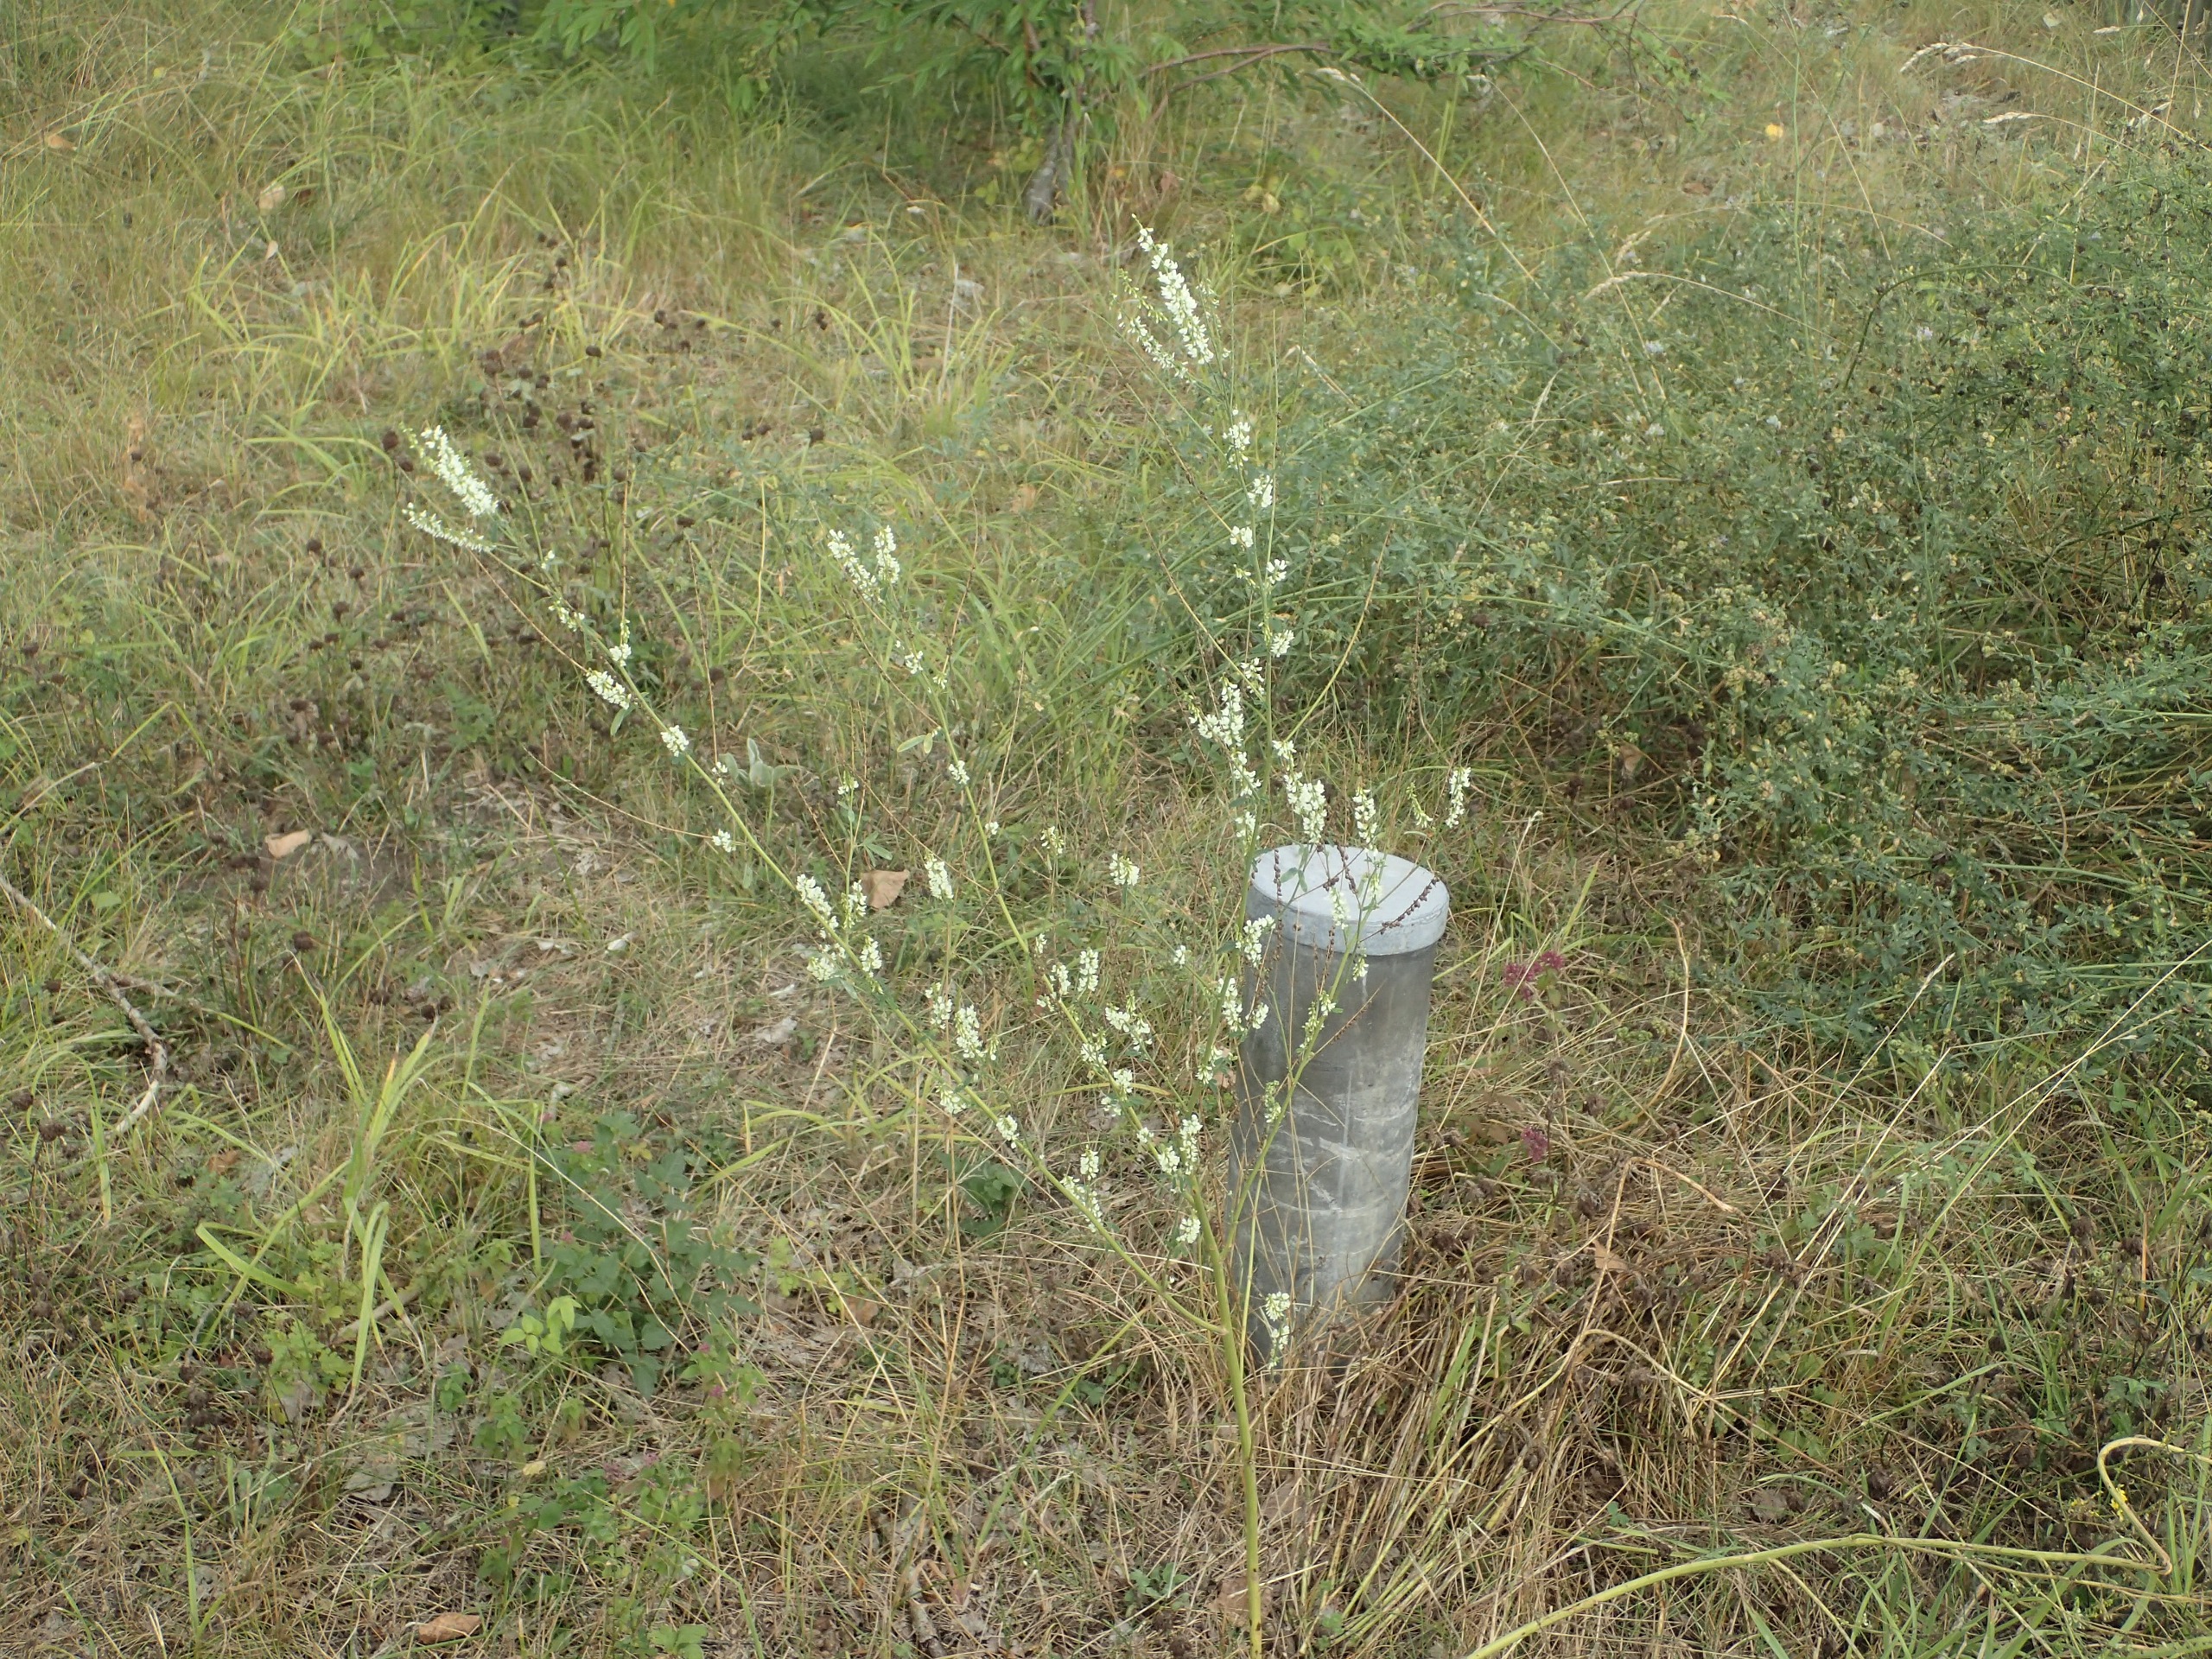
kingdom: Plantae
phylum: Tracheophyta
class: Magnoliopsida
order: Fabales
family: Fabaceae
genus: Melilotus
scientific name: Melilotus albus
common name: Hvid stenkløver
